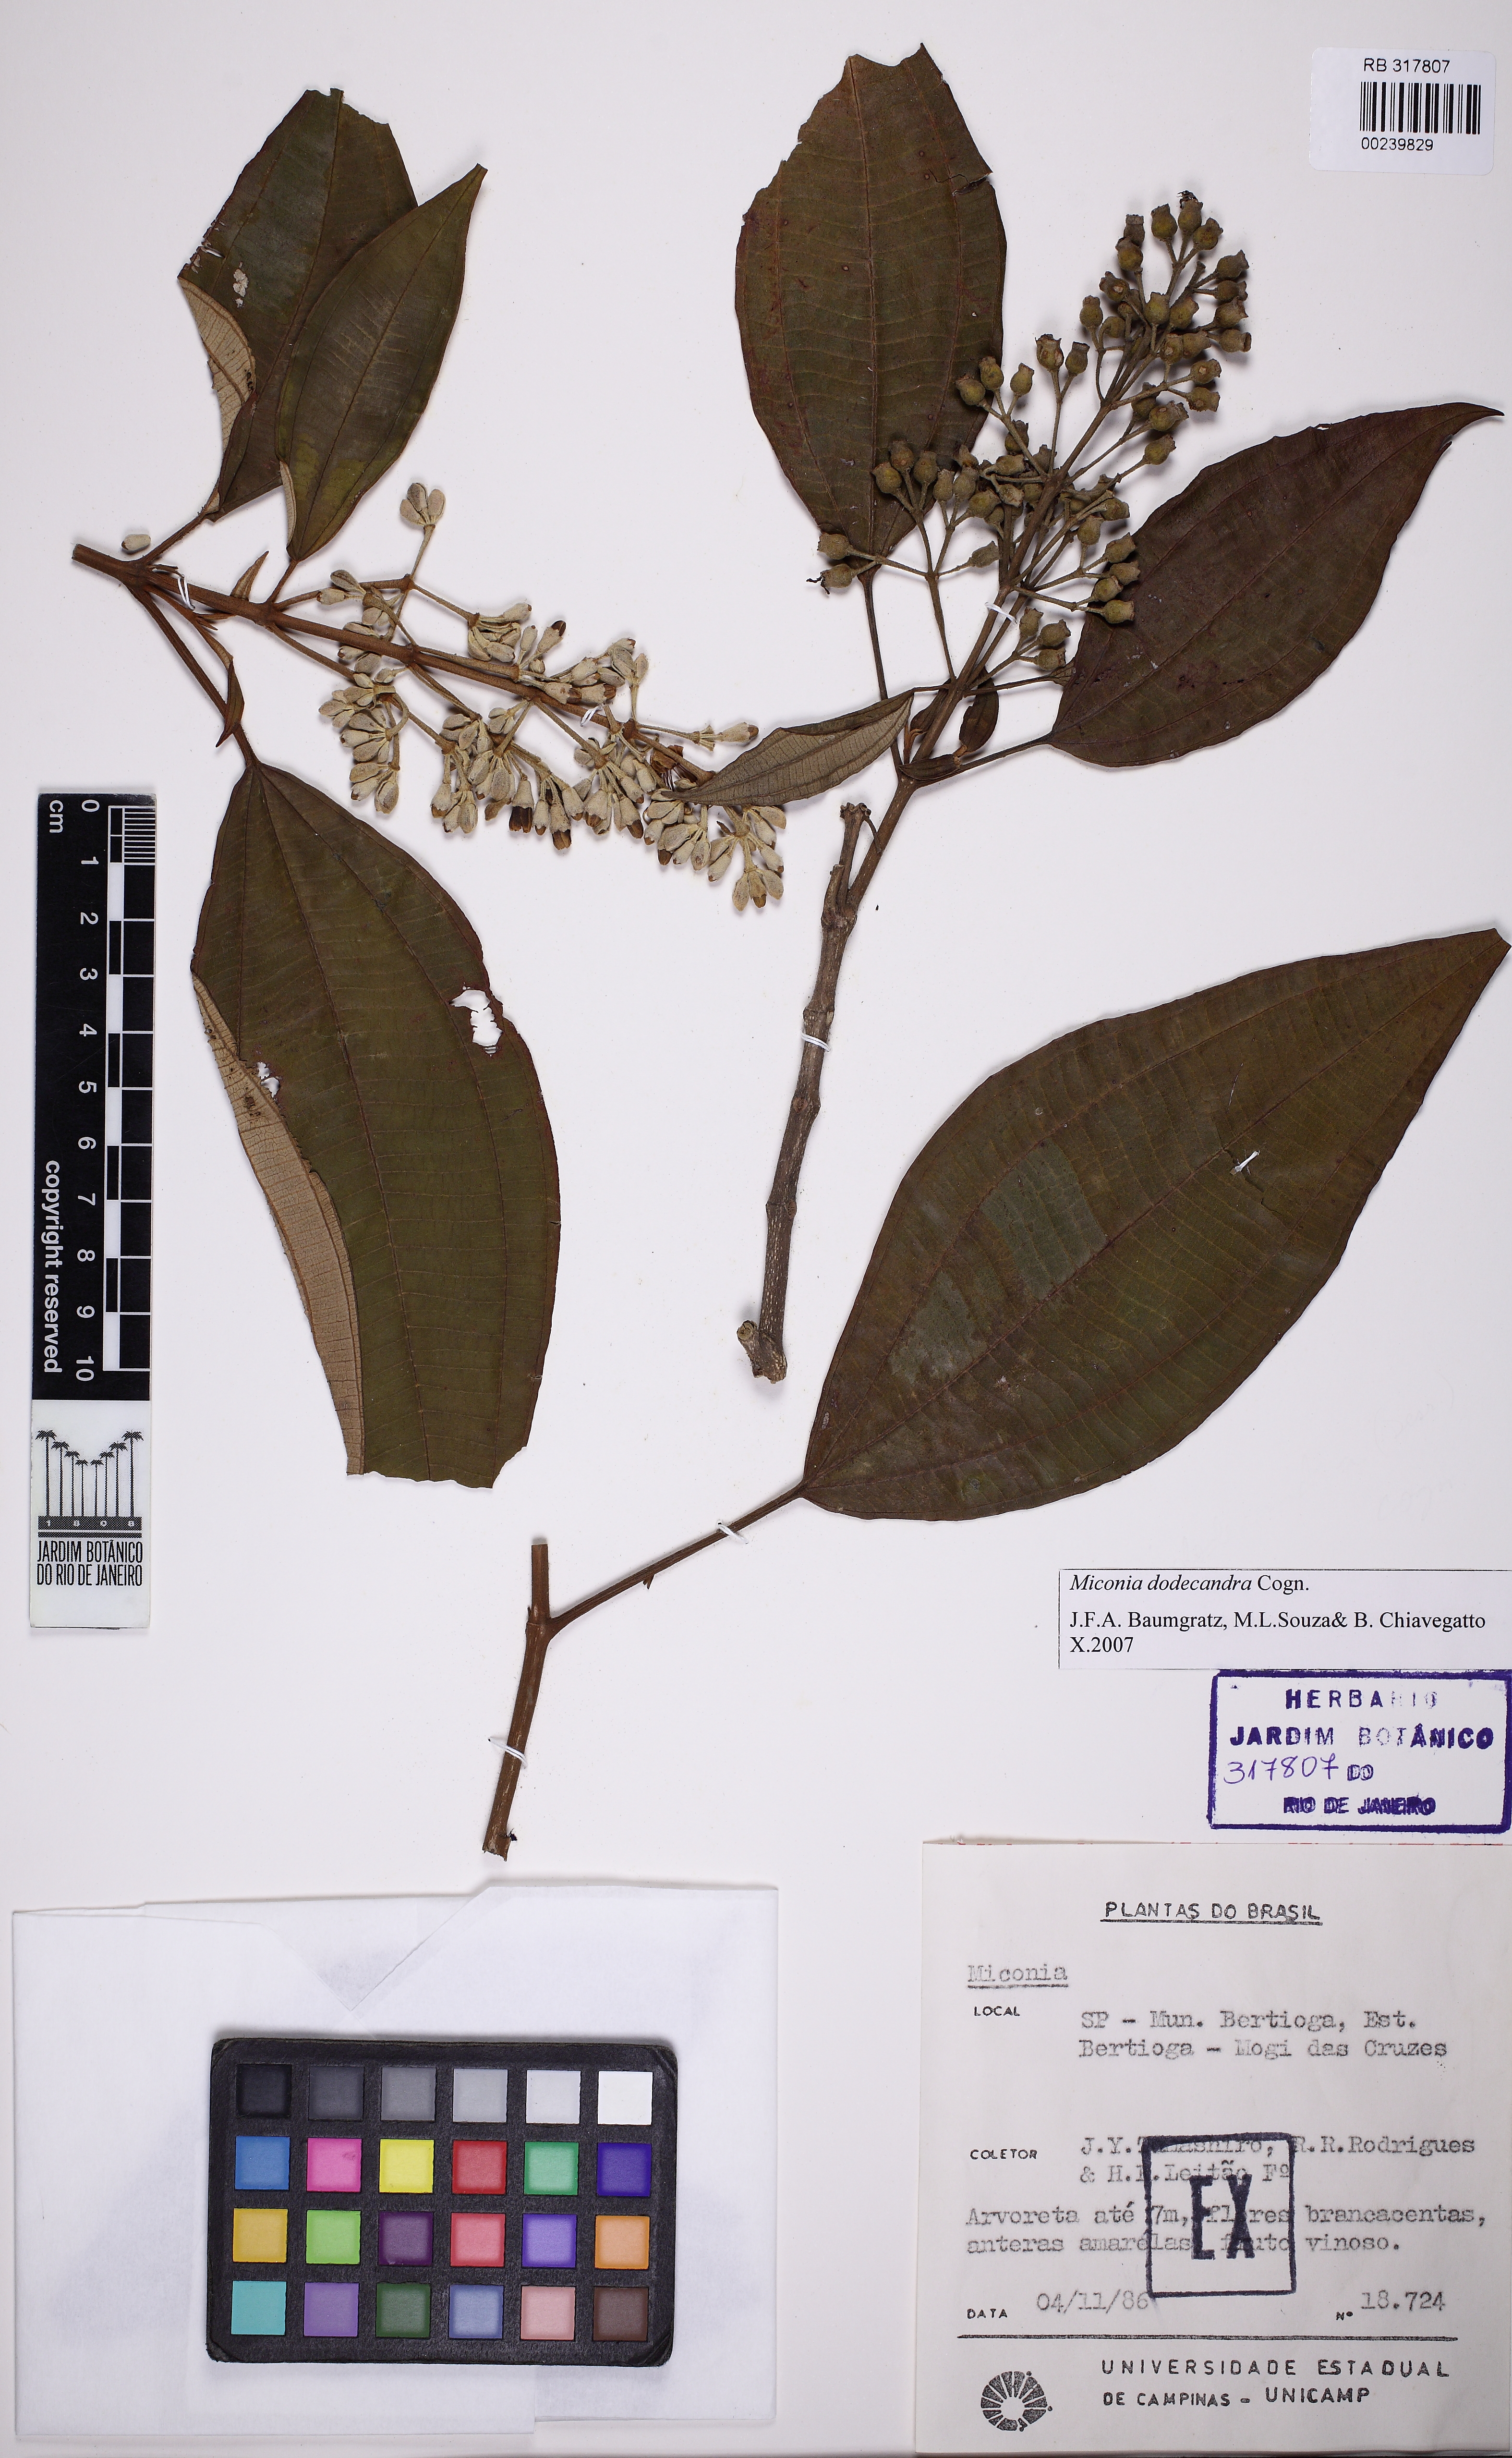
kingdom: Plantae
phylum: Tracheophyta
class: Magnoliopsida
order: Myrtales
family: Melastomataceae
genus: Miconia
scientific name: Miconia dodecandra
